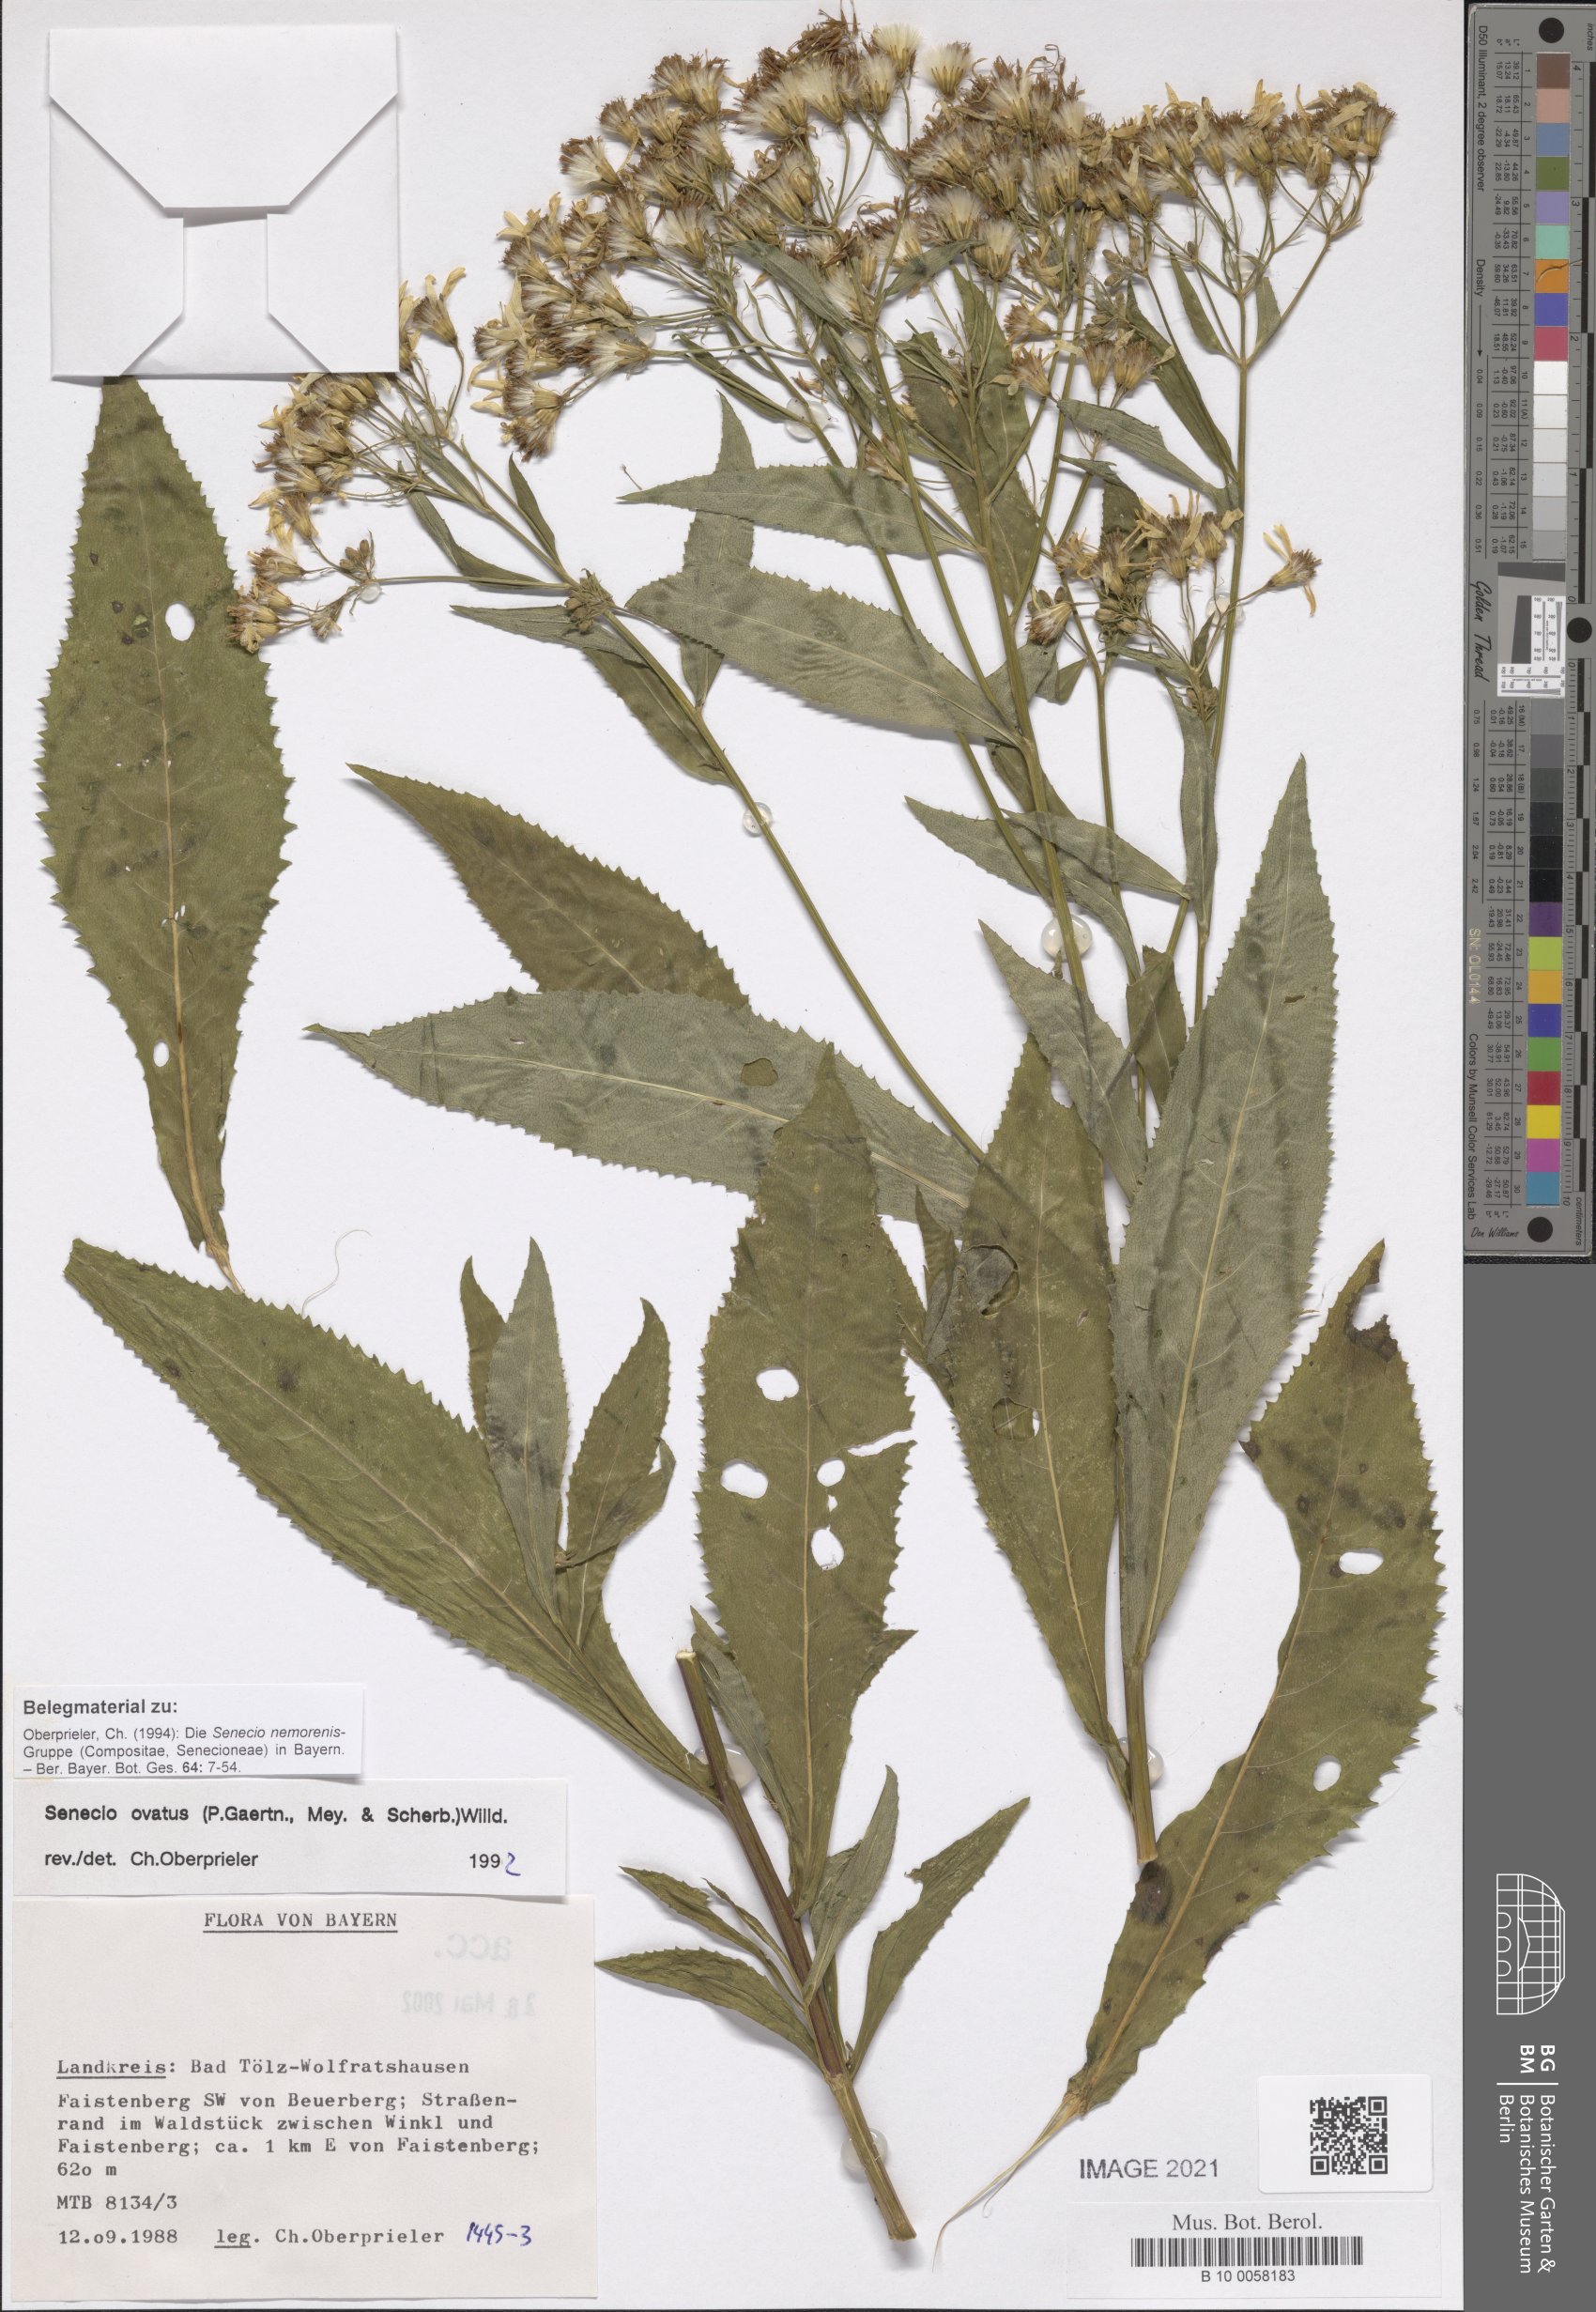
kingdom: Plantae
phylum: Tracheophyta
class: Magnoliopsida
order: Asterales
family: Asteraceae
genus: Senecio
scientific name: Senecio ovatus
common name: Wood ragwort
